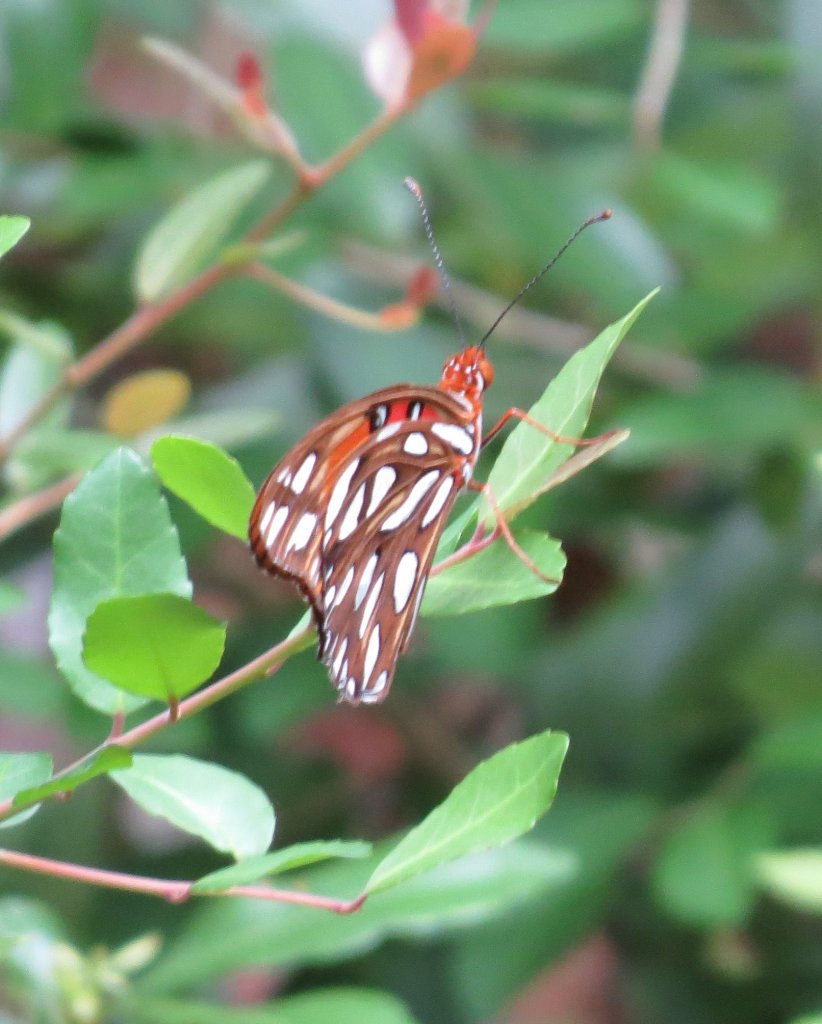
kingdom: Animalia
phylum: Arthropoda
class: Insecta
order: Lepidoptera
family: Nymphalidae
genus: Dione
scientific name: Dione vanillae
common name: Gulf Fritillary
